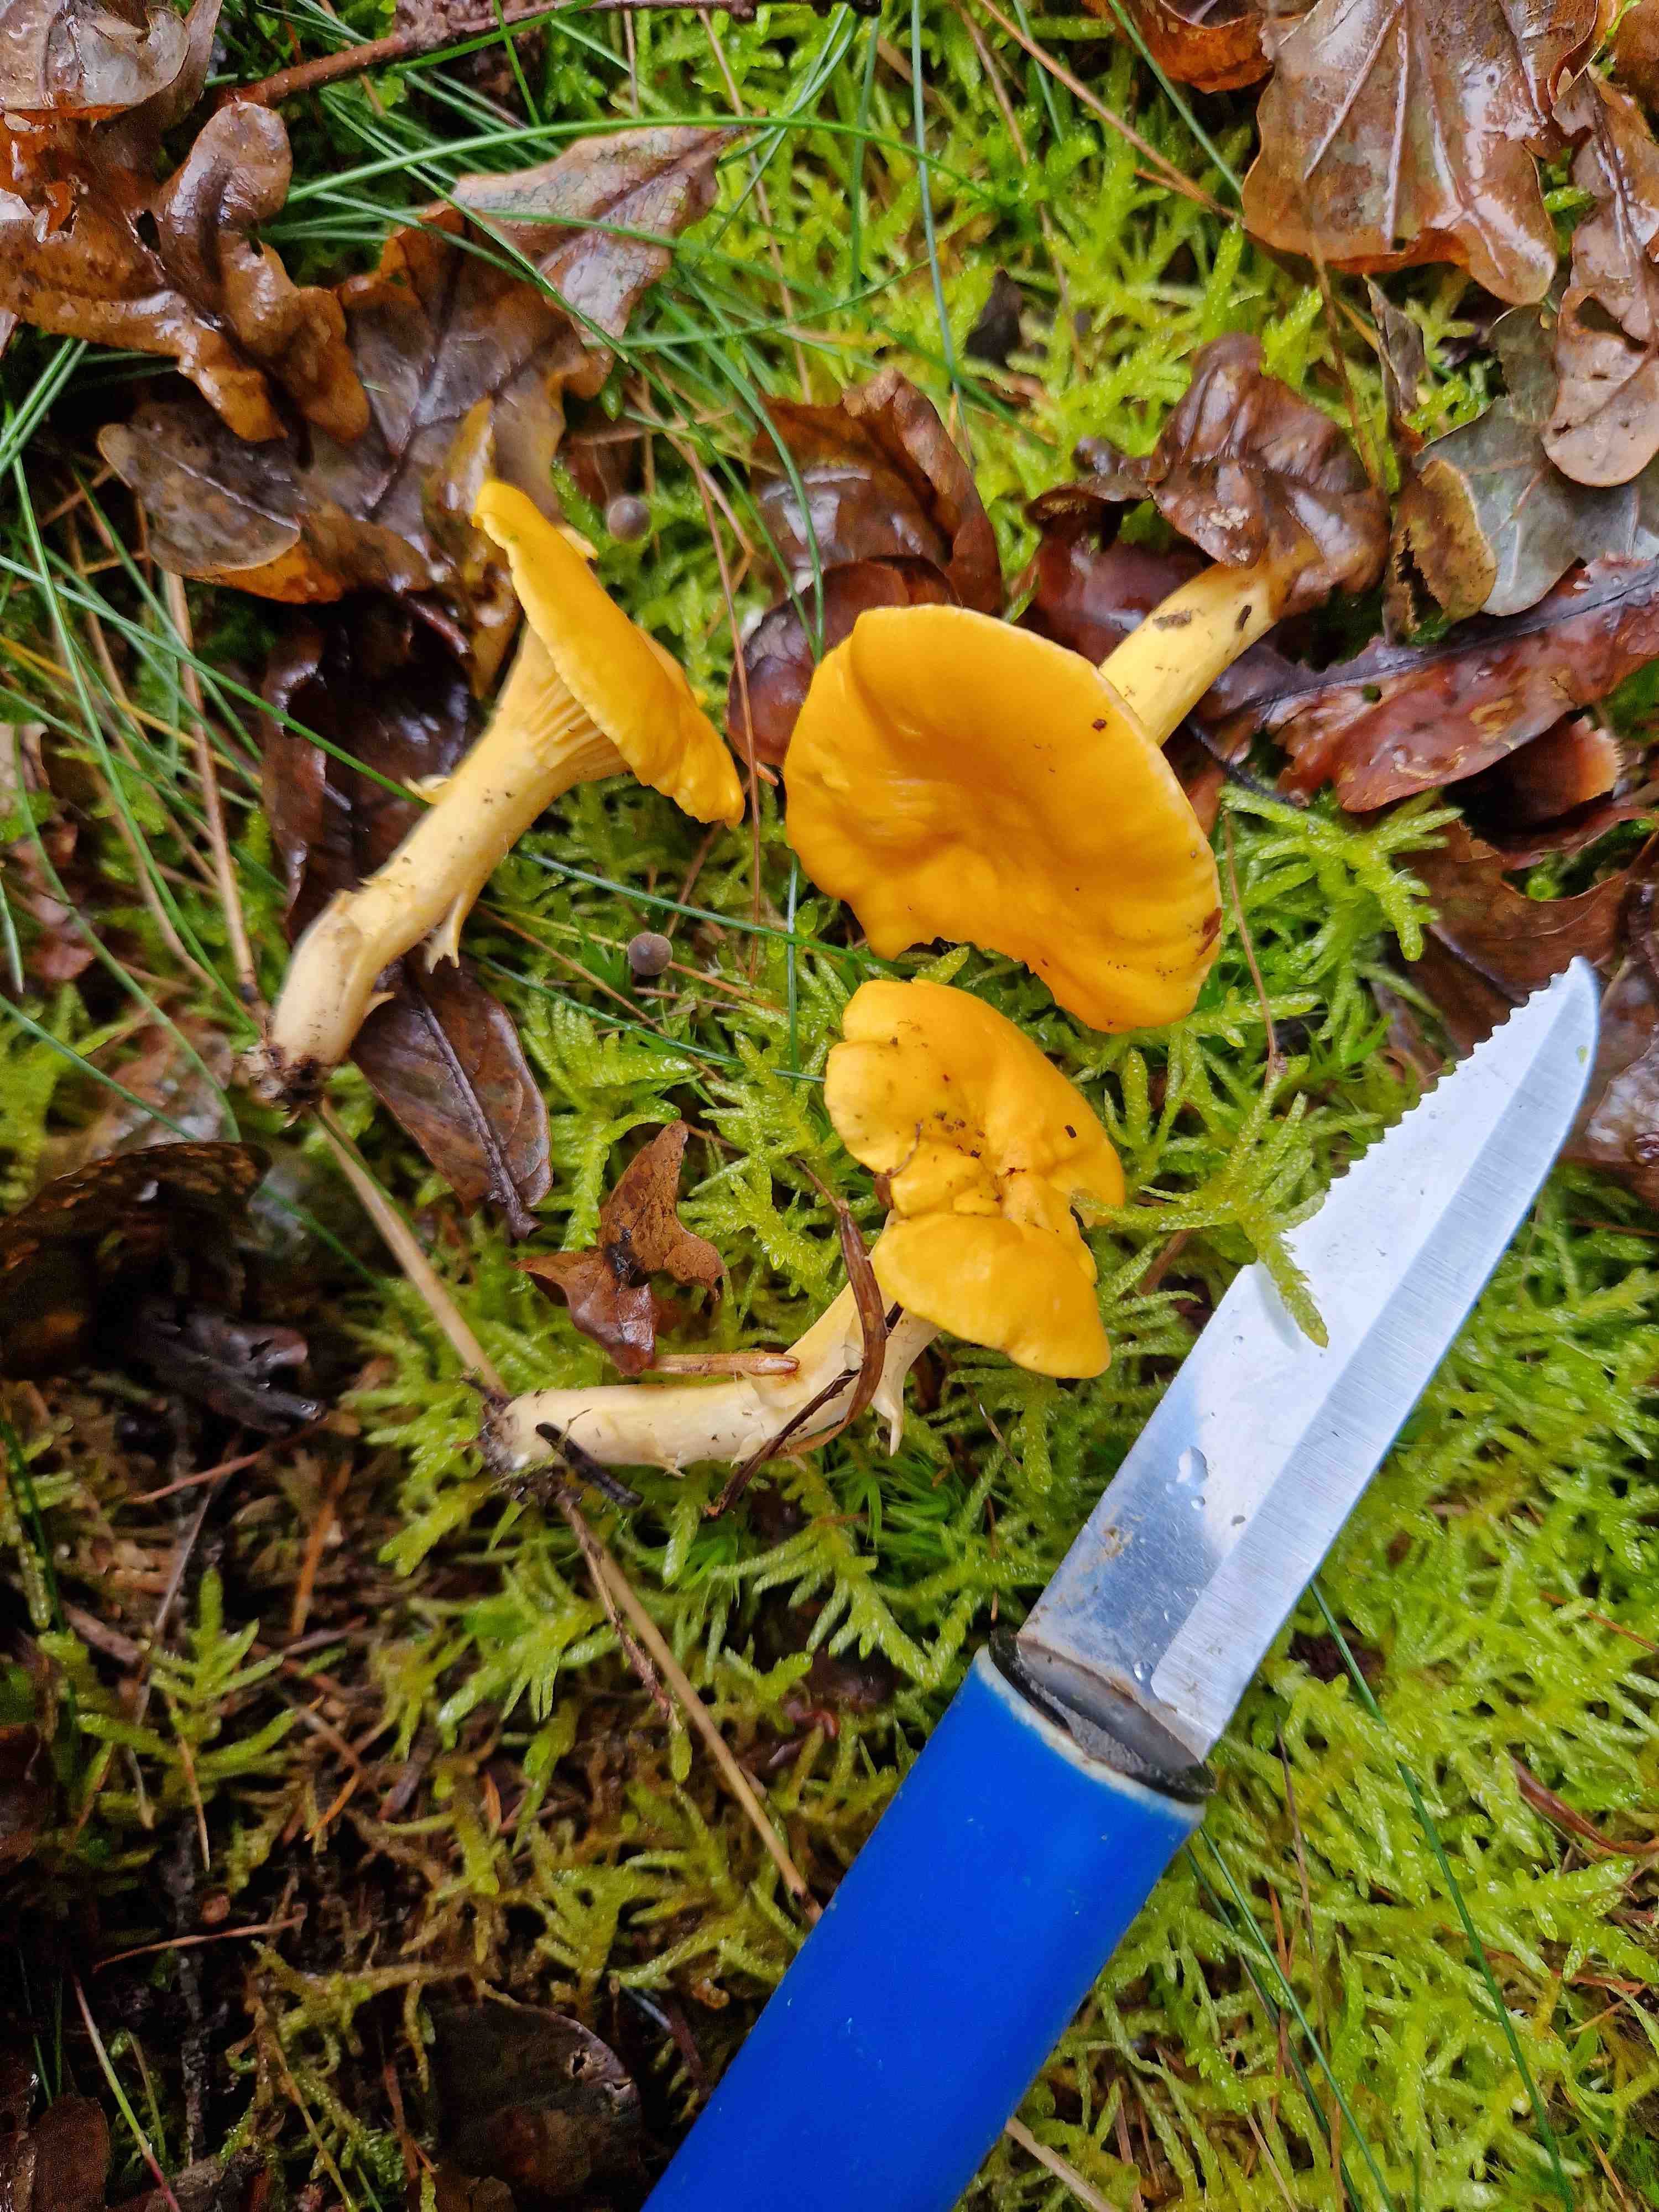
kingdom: Fungi
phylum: Basidiomycota
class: Agaricomycetes
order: Cantharellales
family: Hydnaceae
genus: Cantharellus
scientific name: Cantharellus cibarius
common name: almindelig kantarel
